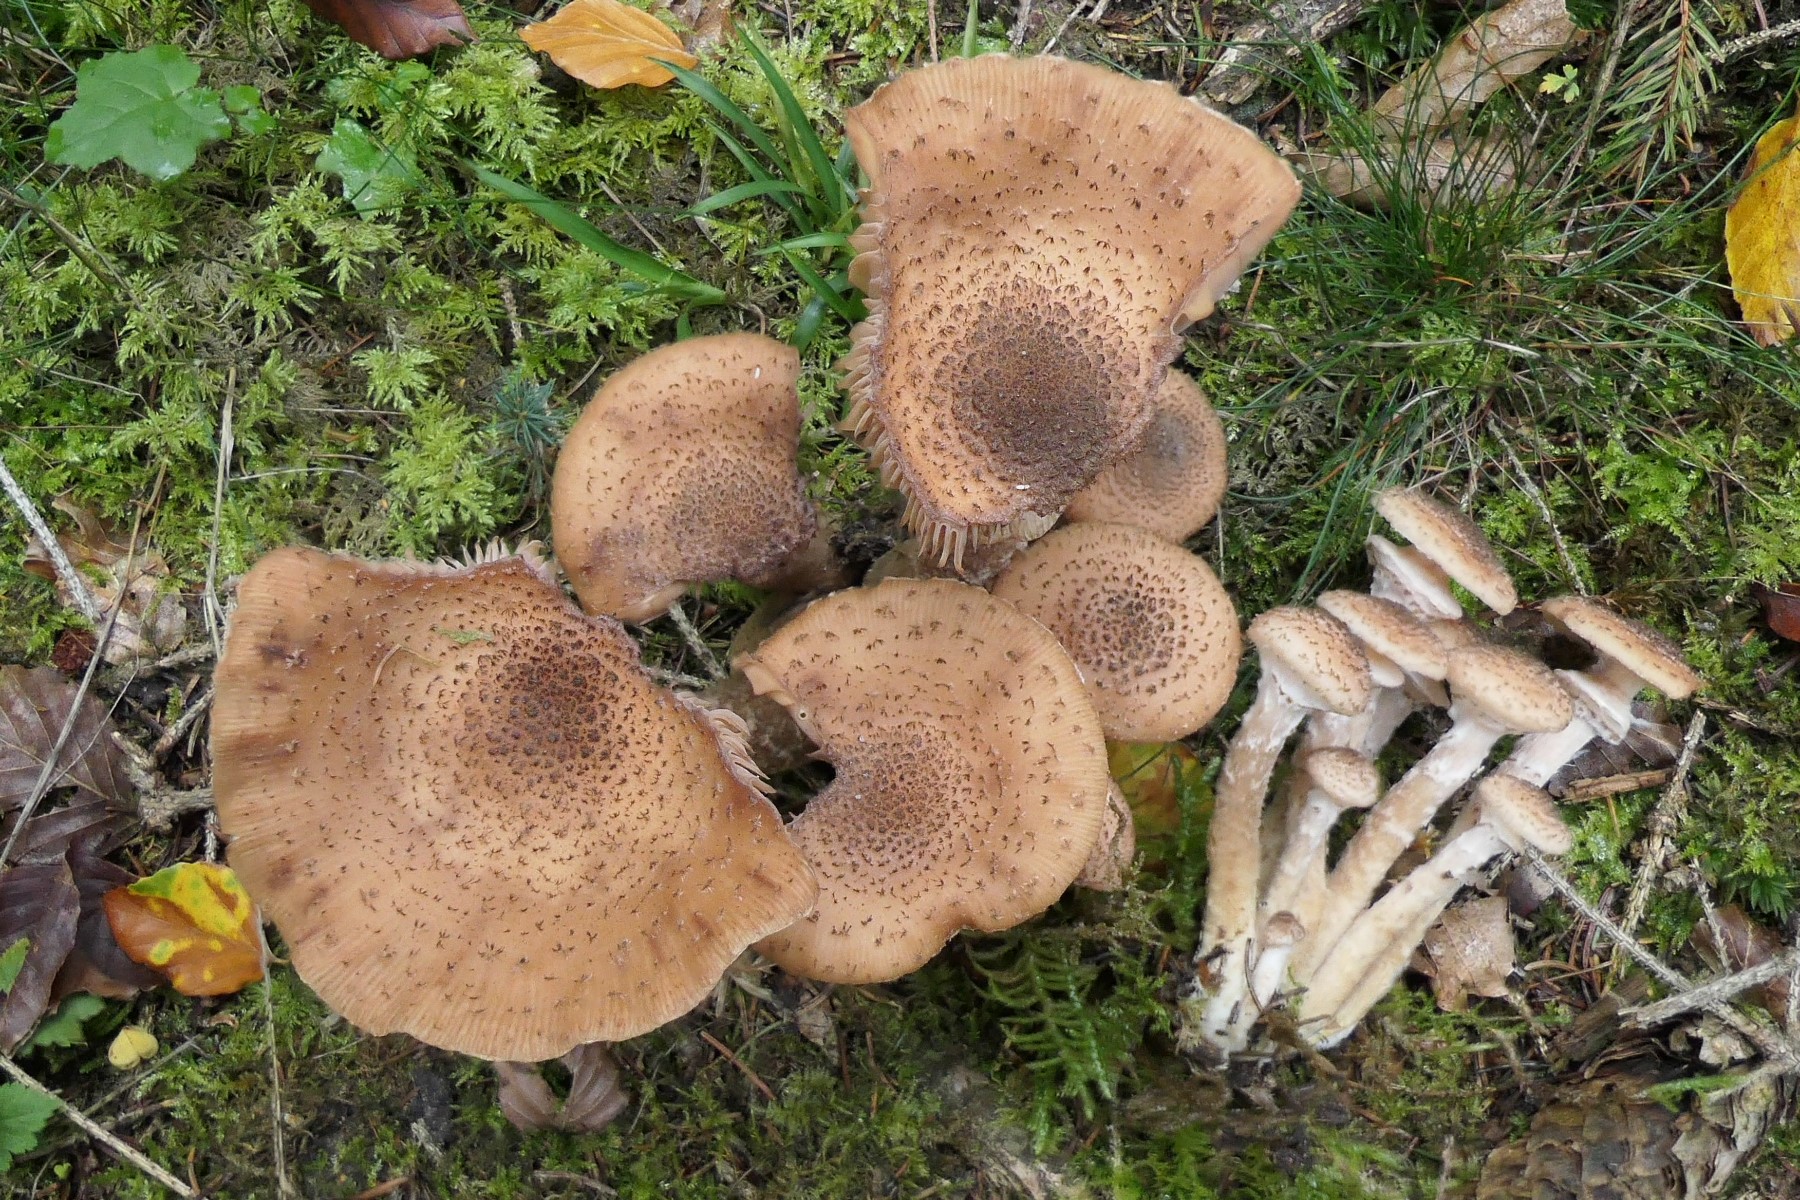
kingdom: Fungi
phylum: Basidiomycota
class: Agaricomycetes
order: Agaricales
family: Physalacriaceae
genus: Armillaria
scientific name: Armillaria ostoyae
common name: mørk honningsvamp
